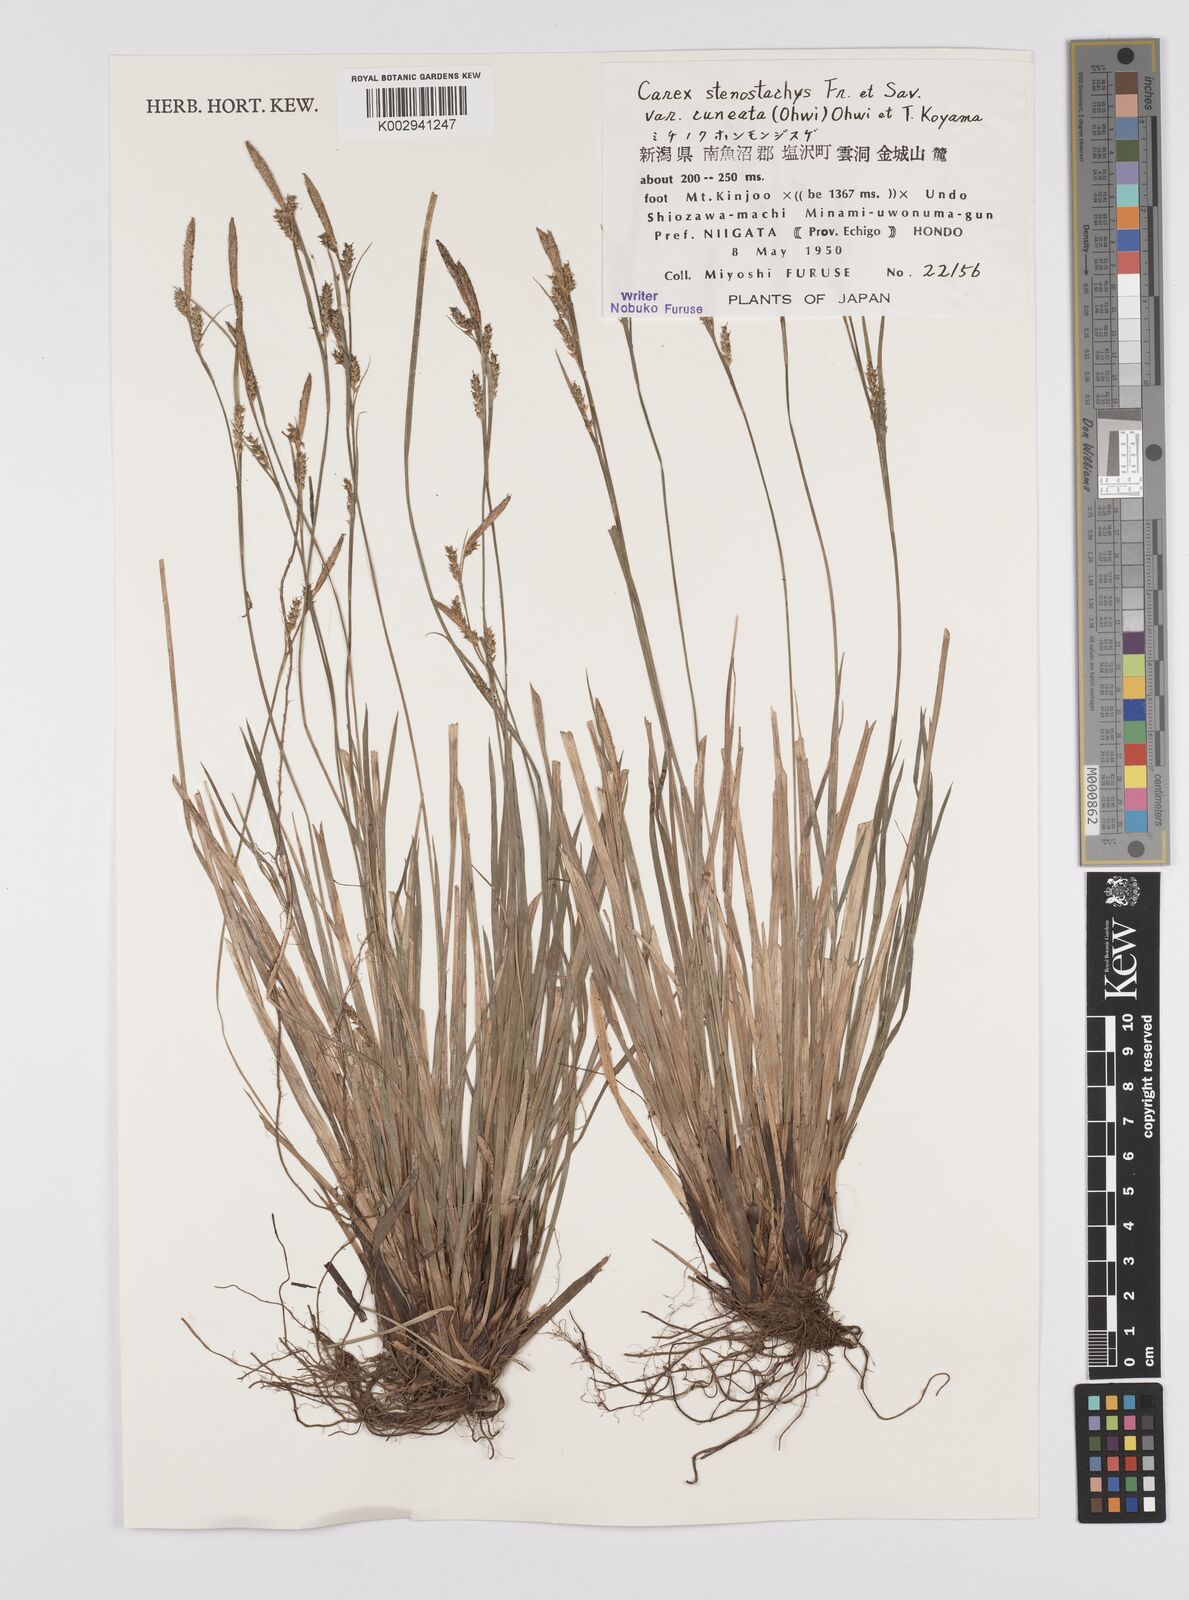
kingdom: Plantae
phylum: Tracheophyta
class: Liliopsida
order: Poales
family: Cyperaceae
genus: Carex
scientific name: Carex pisiformis
